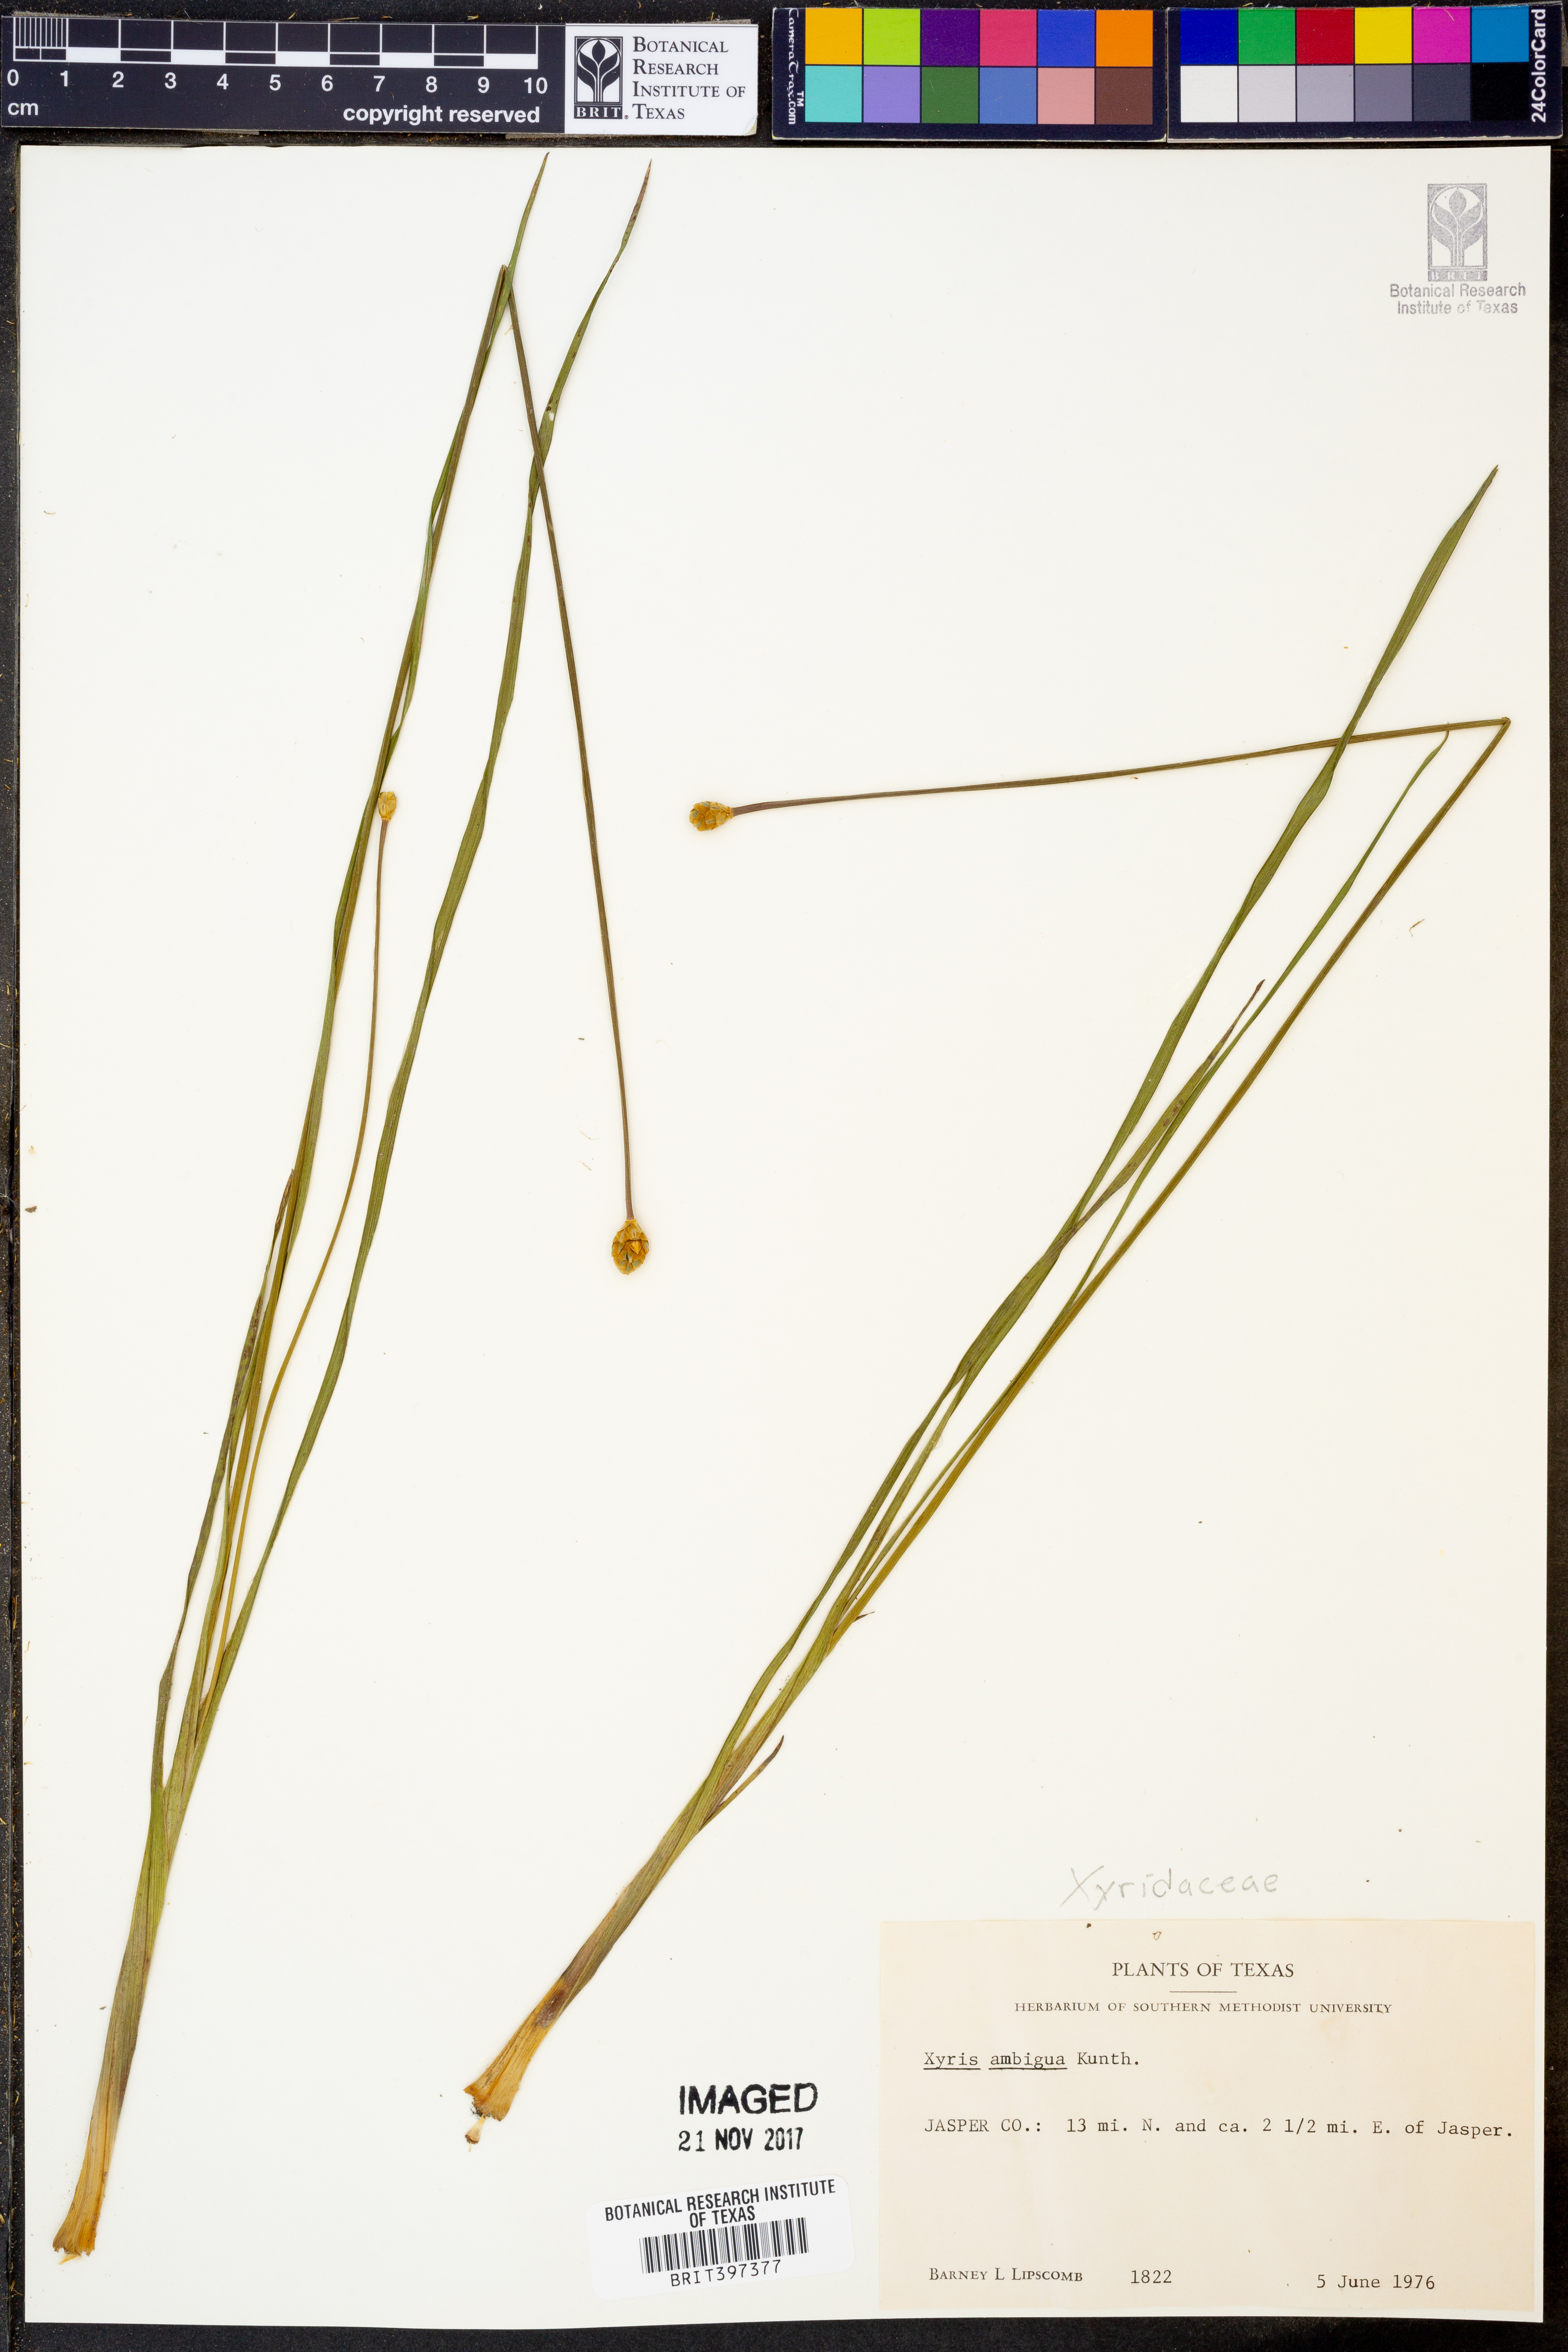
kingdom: Plantae
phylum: Tracheophyta
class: Liliopsida
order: Poales
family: Xyridaceae
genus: Xyris
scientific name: Xyris ambigua
